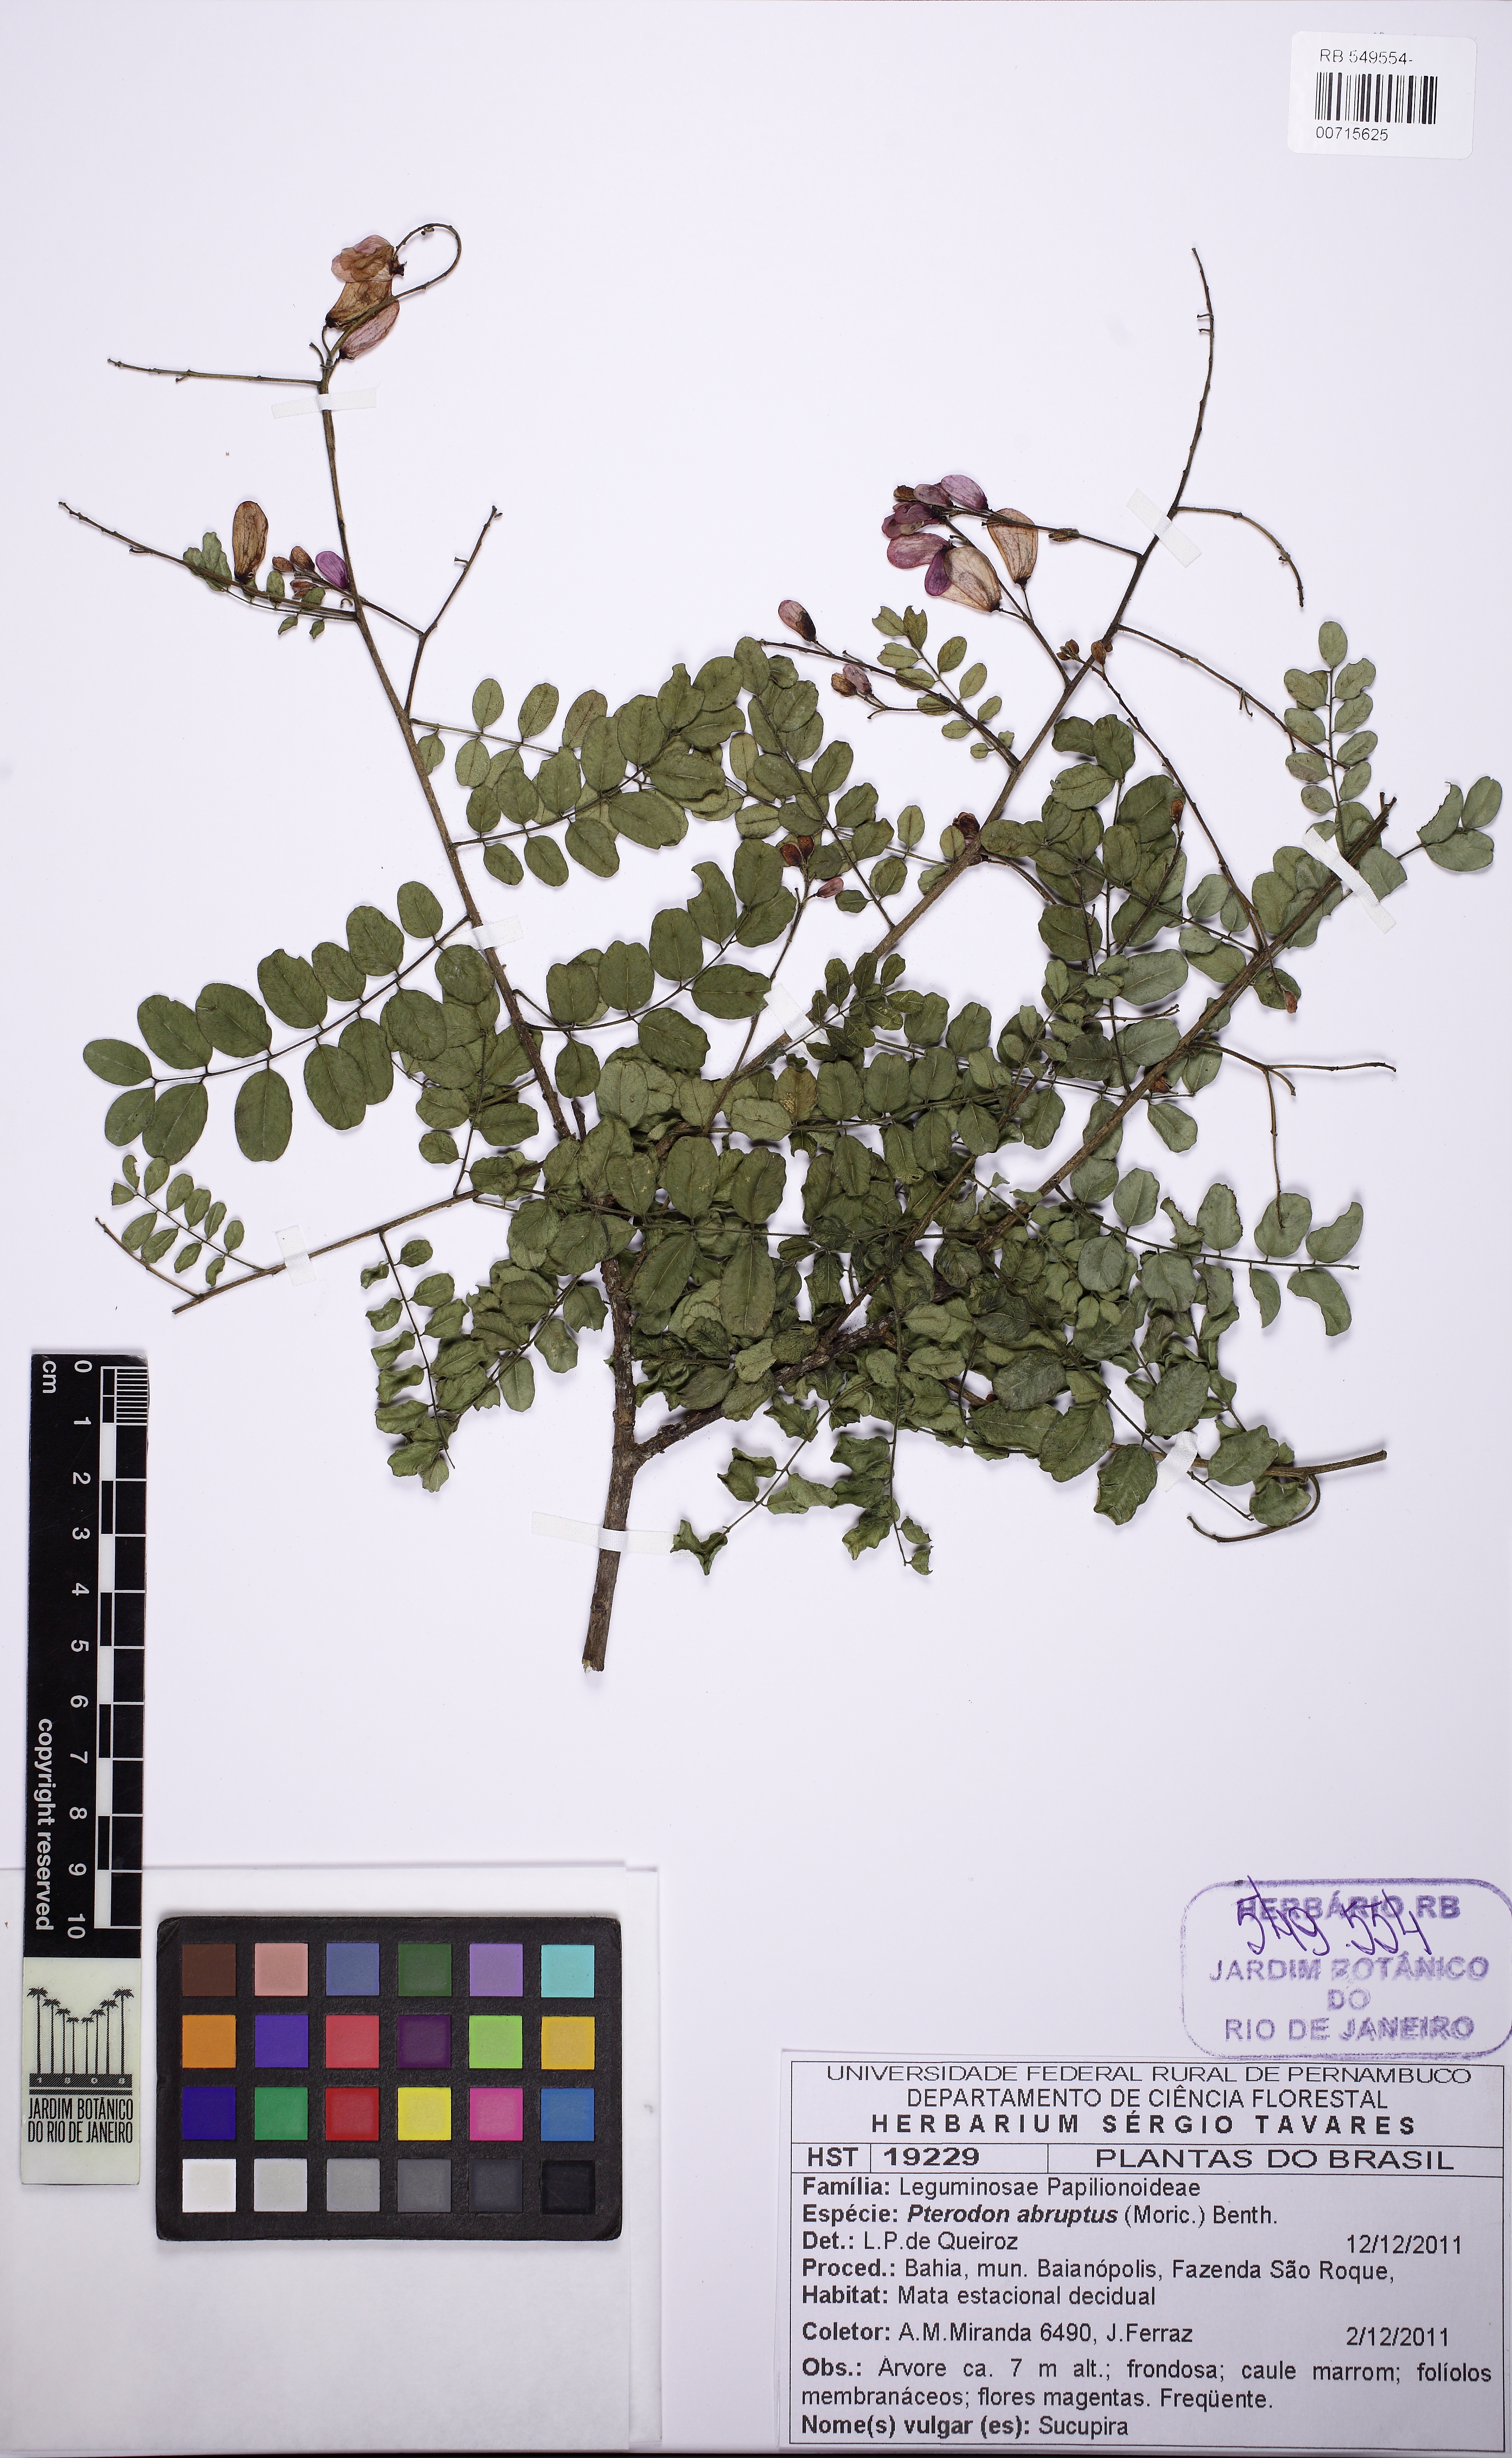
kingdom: Plantae
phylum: Tracheophyta
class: Magnoliopsida
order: Fabales
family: Fabaceae
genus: Pterodon
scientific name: Pterodon abruptus
